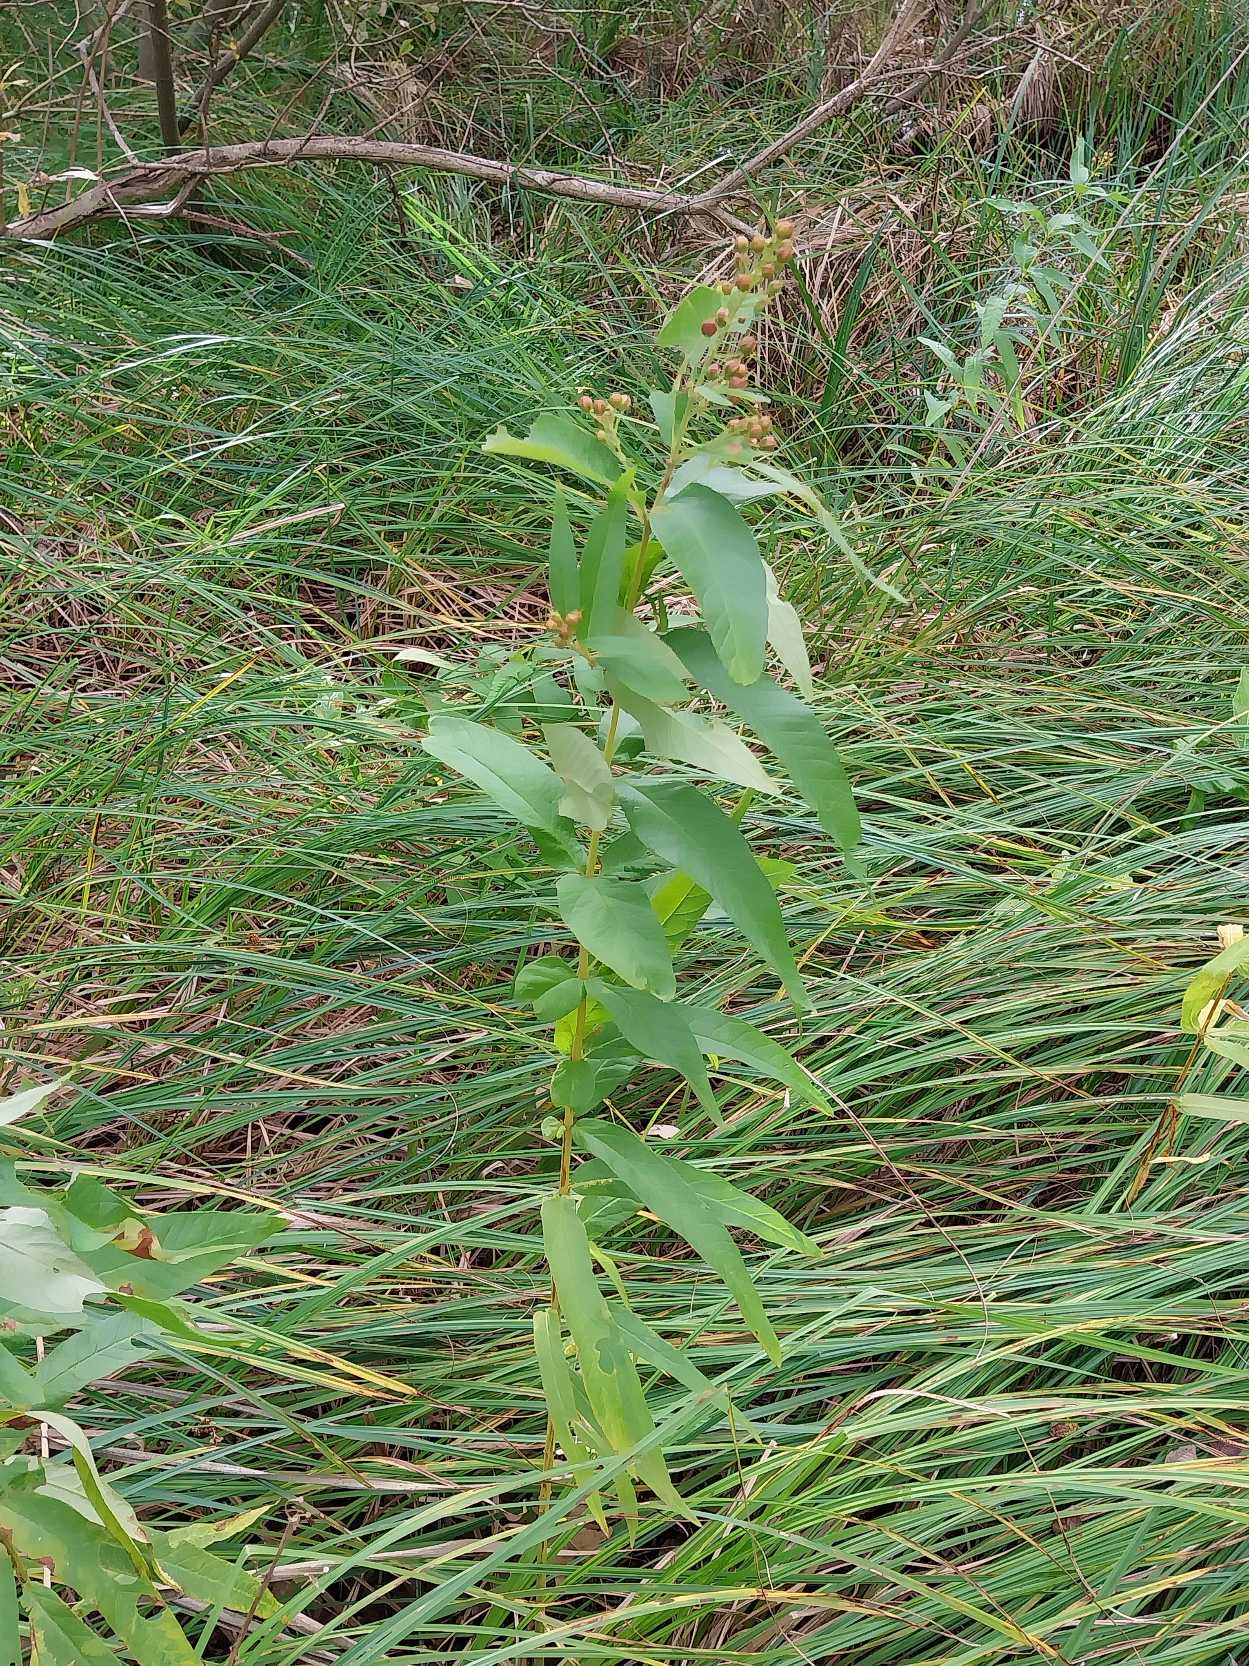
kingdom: Plantae
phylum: Tracheophyta
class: Magnoliopsida
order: Ericales
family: Primulaceae
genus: Lysimachia
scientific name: Lysimachia vulgaris
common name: Almindelig fredløs
